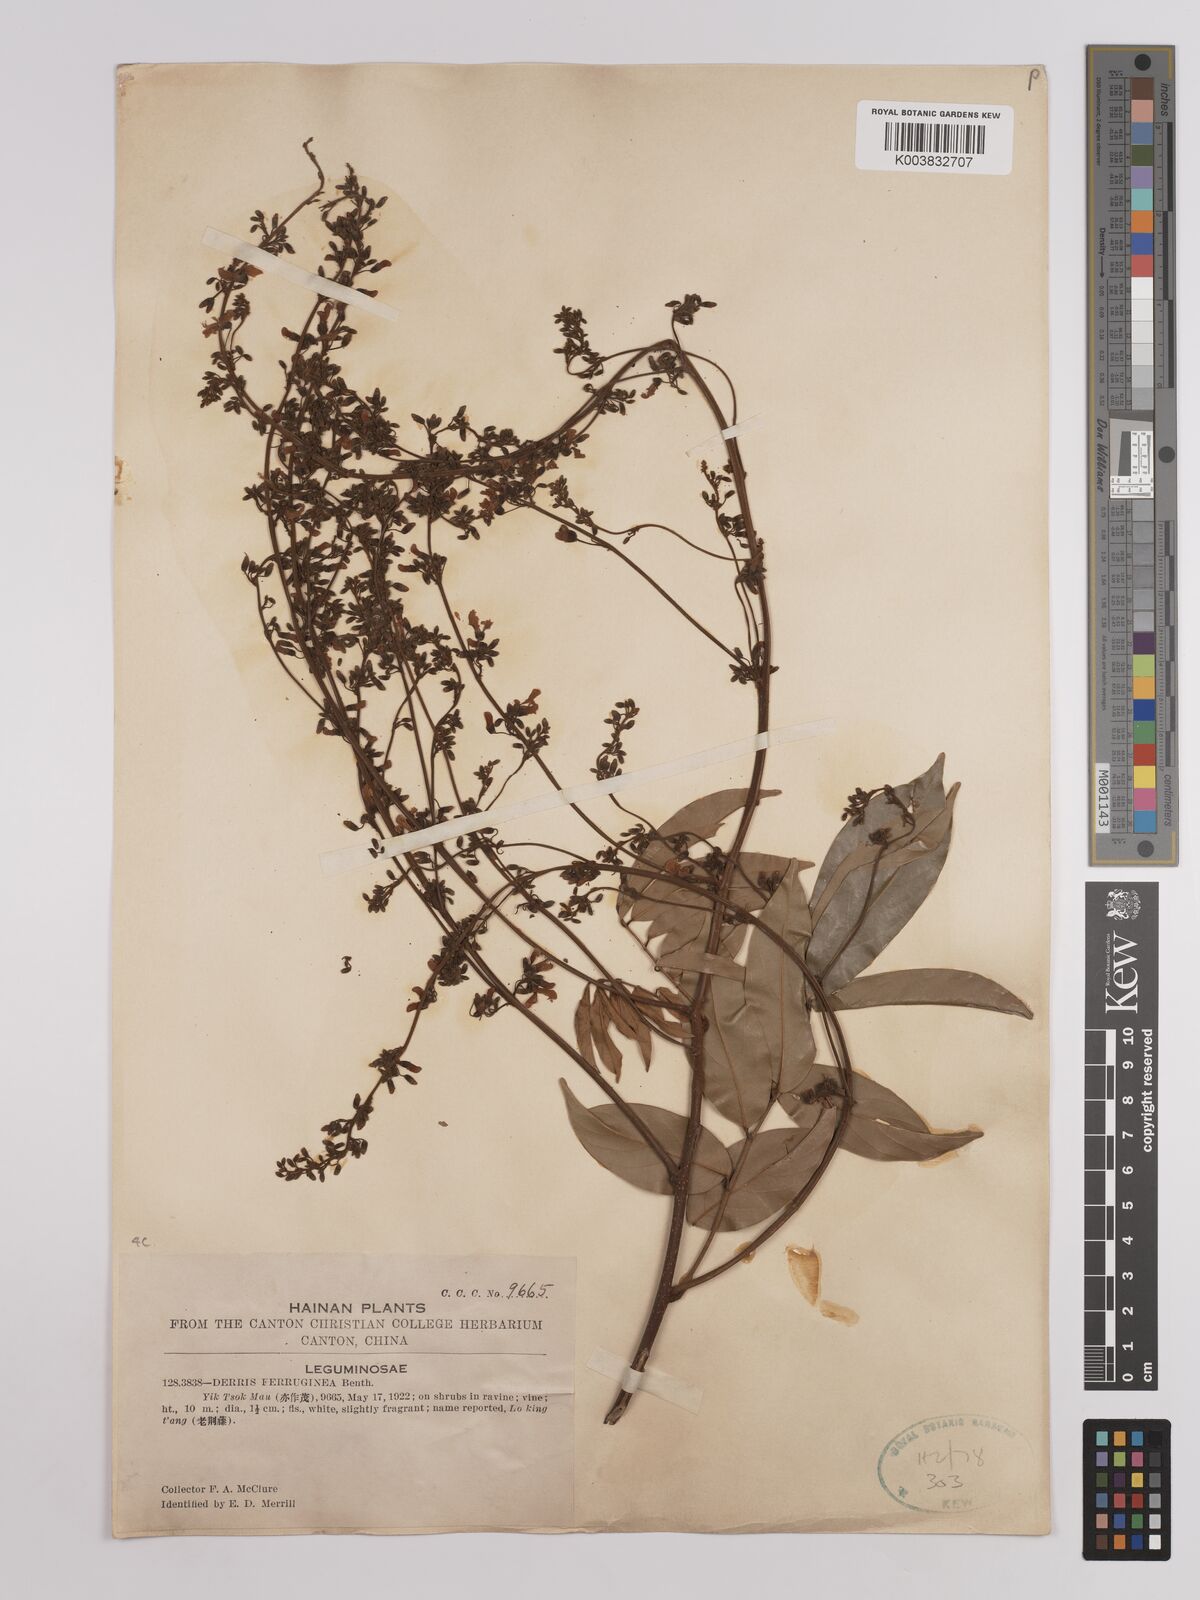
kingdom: Plantae
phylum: Tracheophyta
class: Magnoliopsida
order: Fabales
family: Fabaceae
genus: Derris
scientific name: Derris ferruginea
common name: Indian tubaroot
